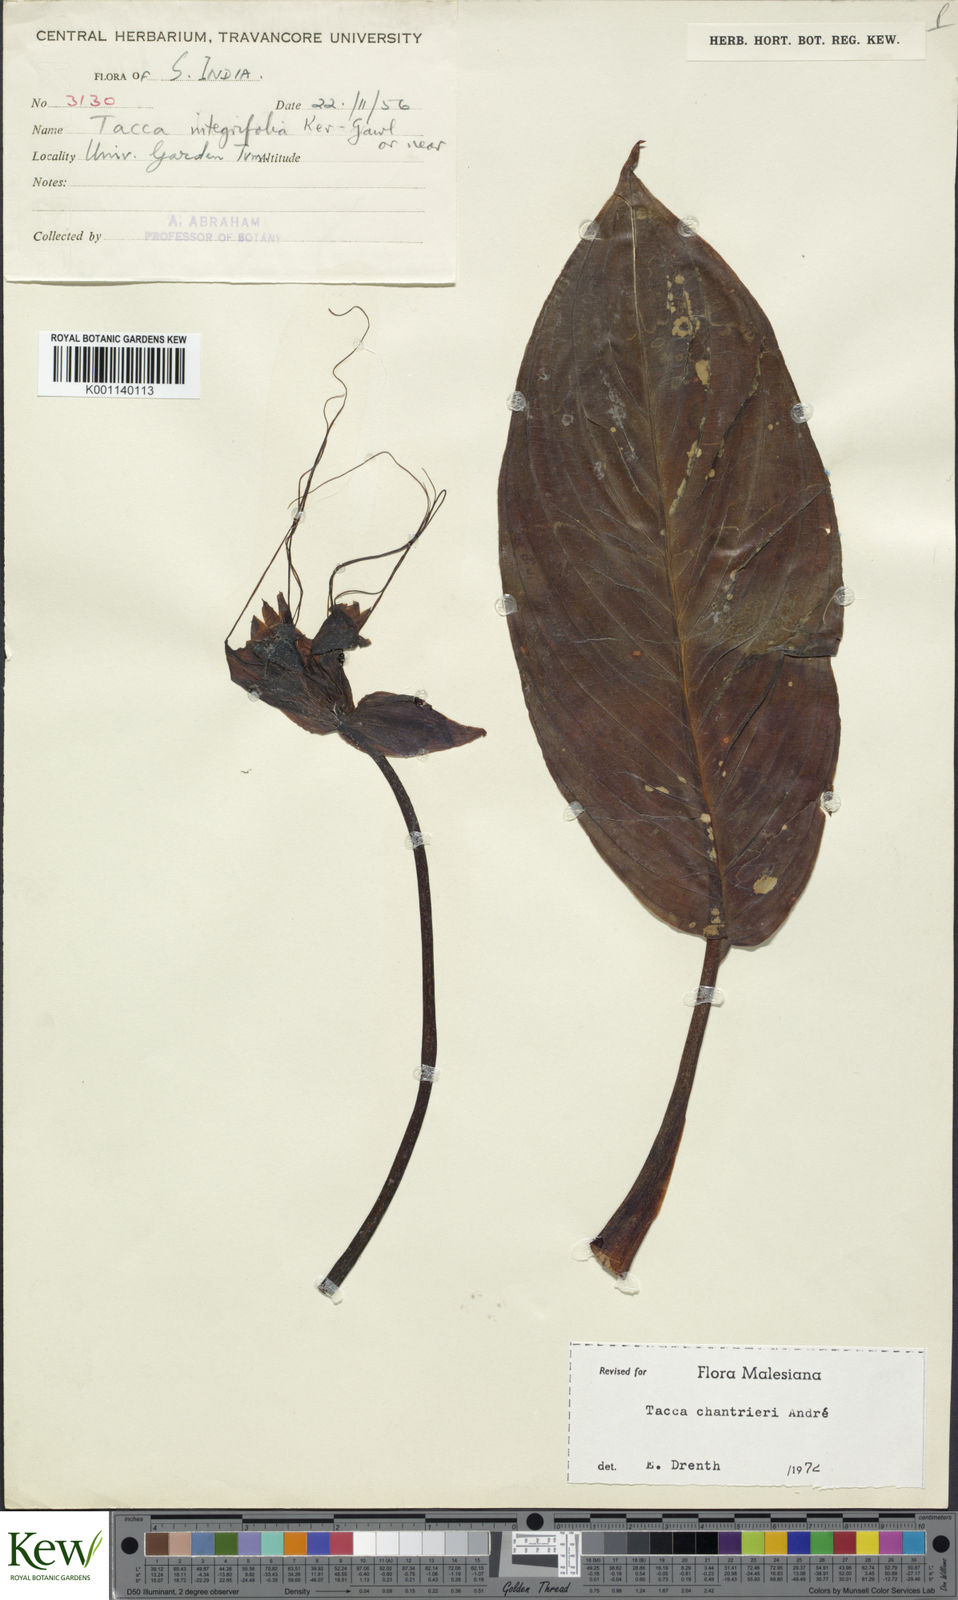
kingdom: Plantae
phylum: Tracheophyta
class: Liliopsida
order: Dioscoreales
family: Dioscoreaceae
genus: Tacca
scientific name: Tacca
